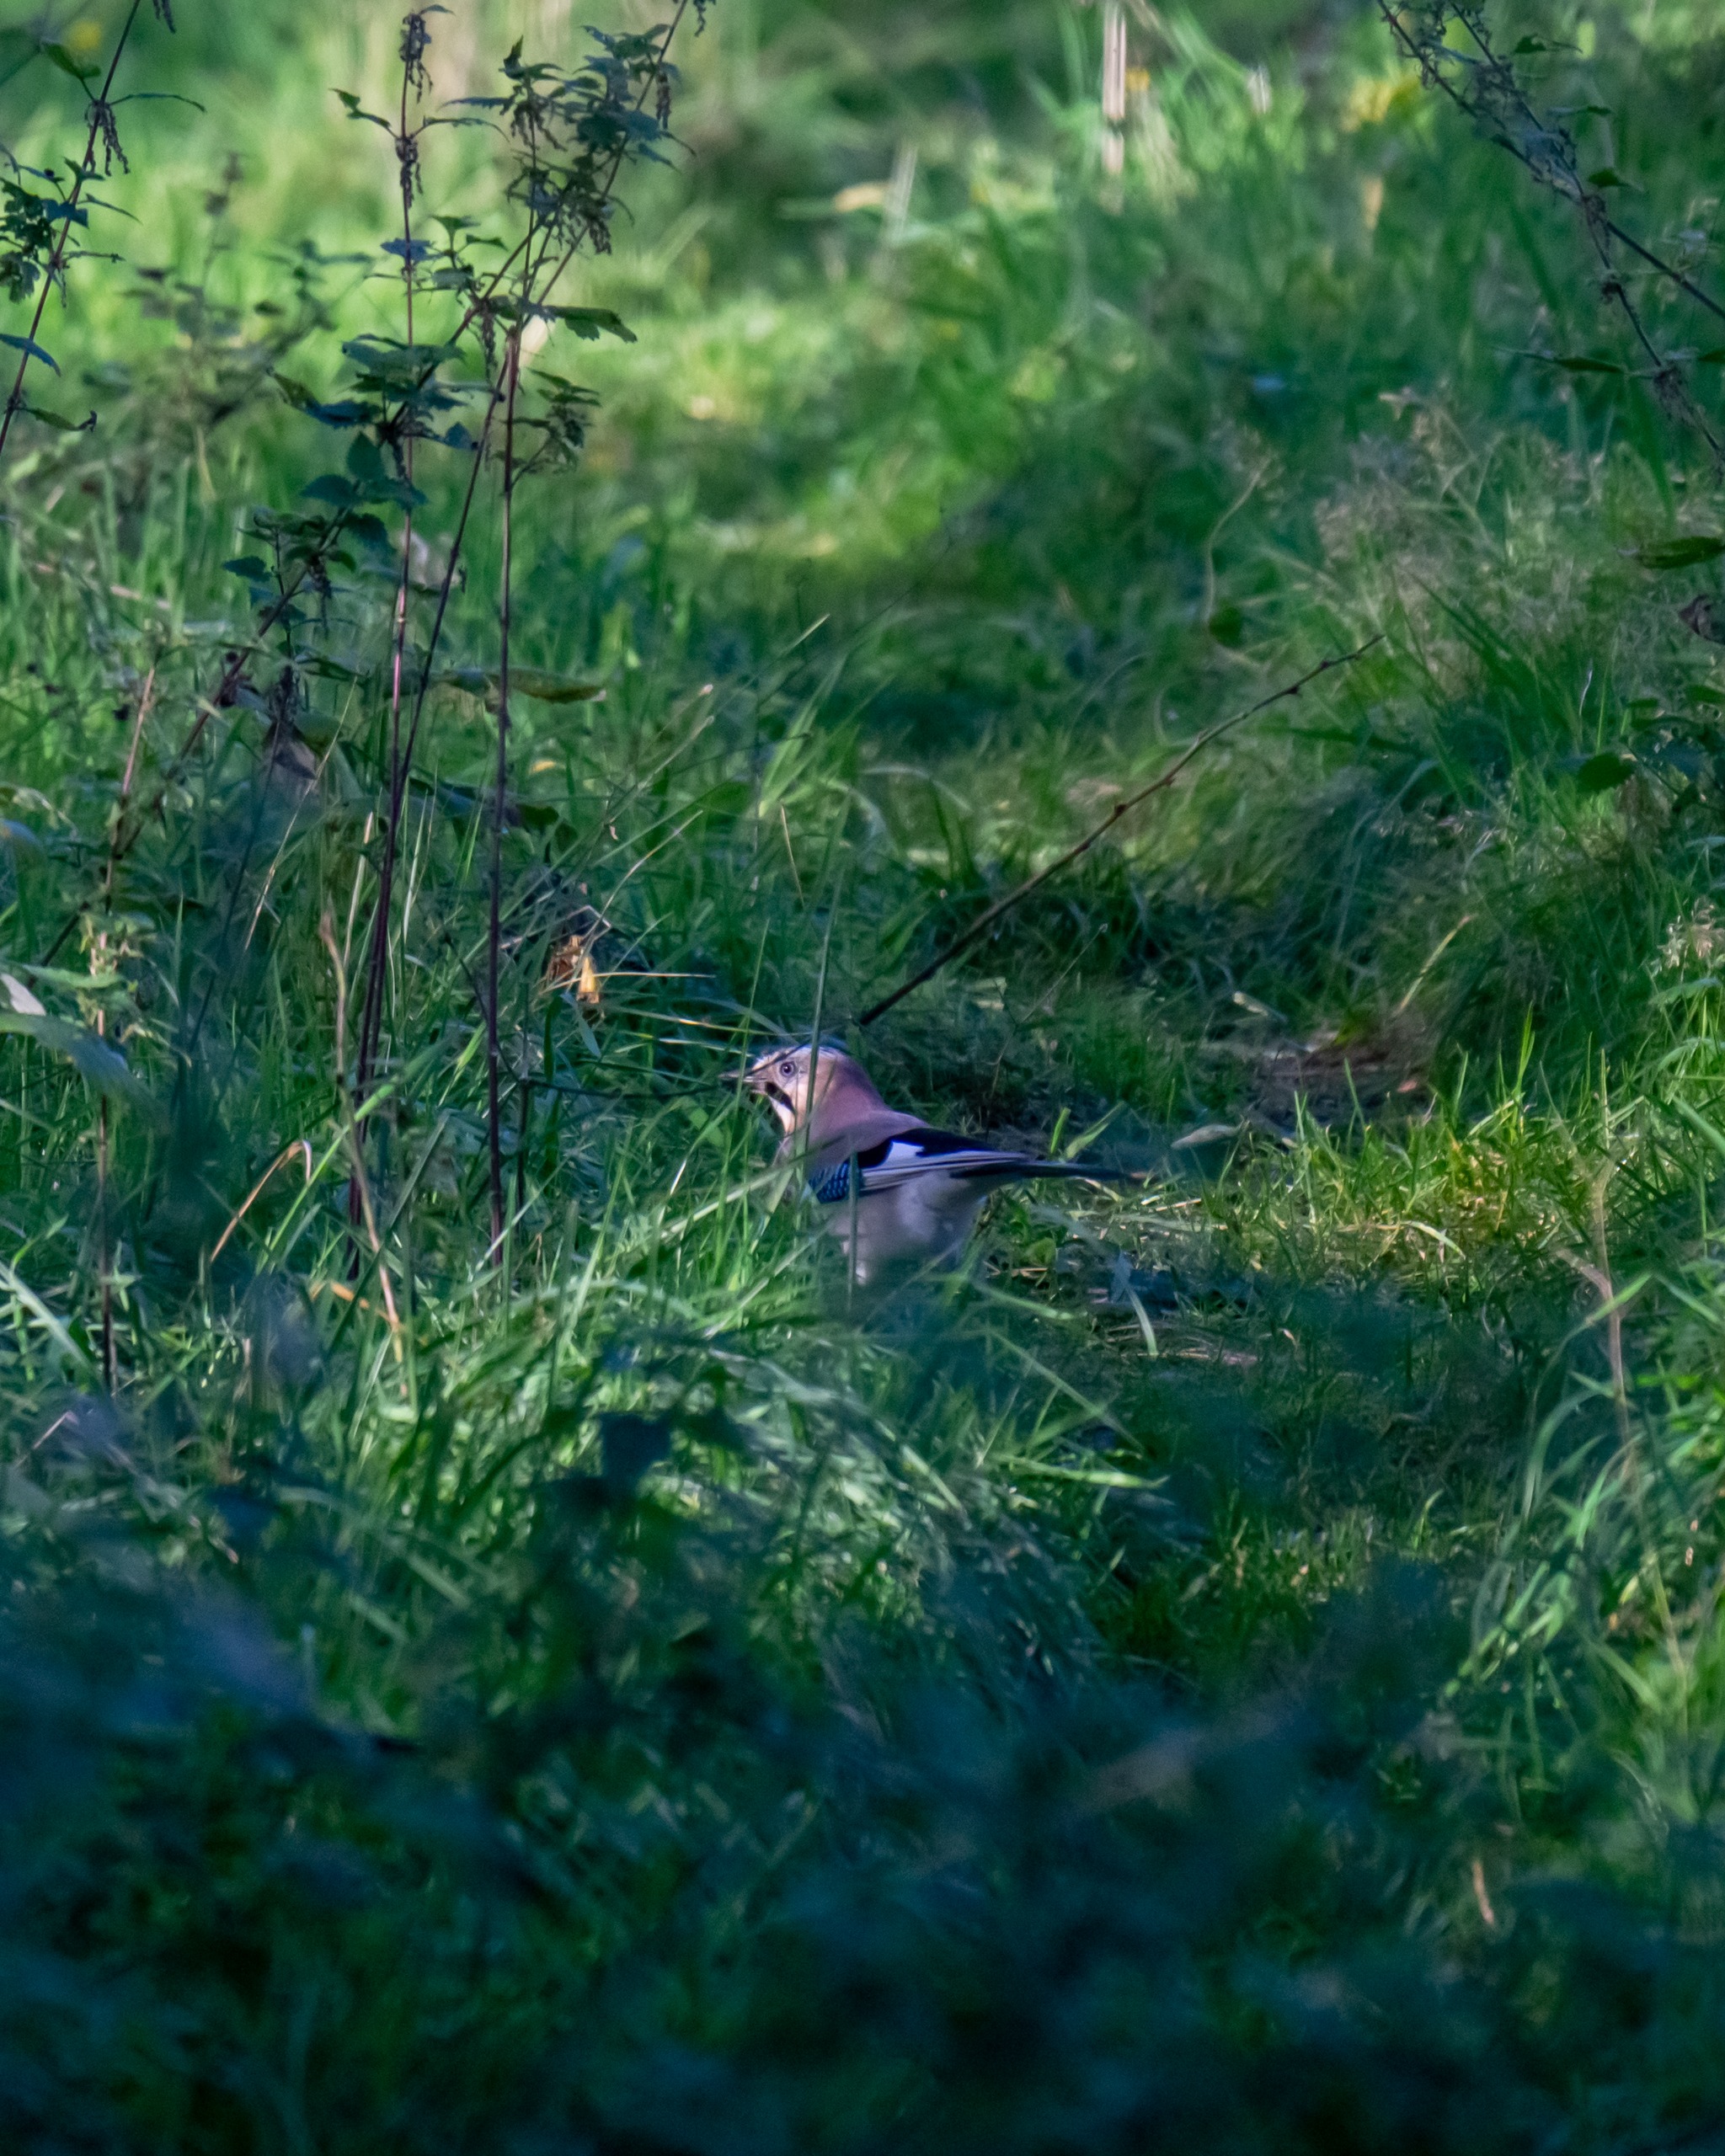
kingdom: Animalia
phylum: Chordata
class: Aves
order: Passeriformes
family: Corvidae
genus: Garrulus
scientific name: Garrulus glandarius
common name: Skovskade
